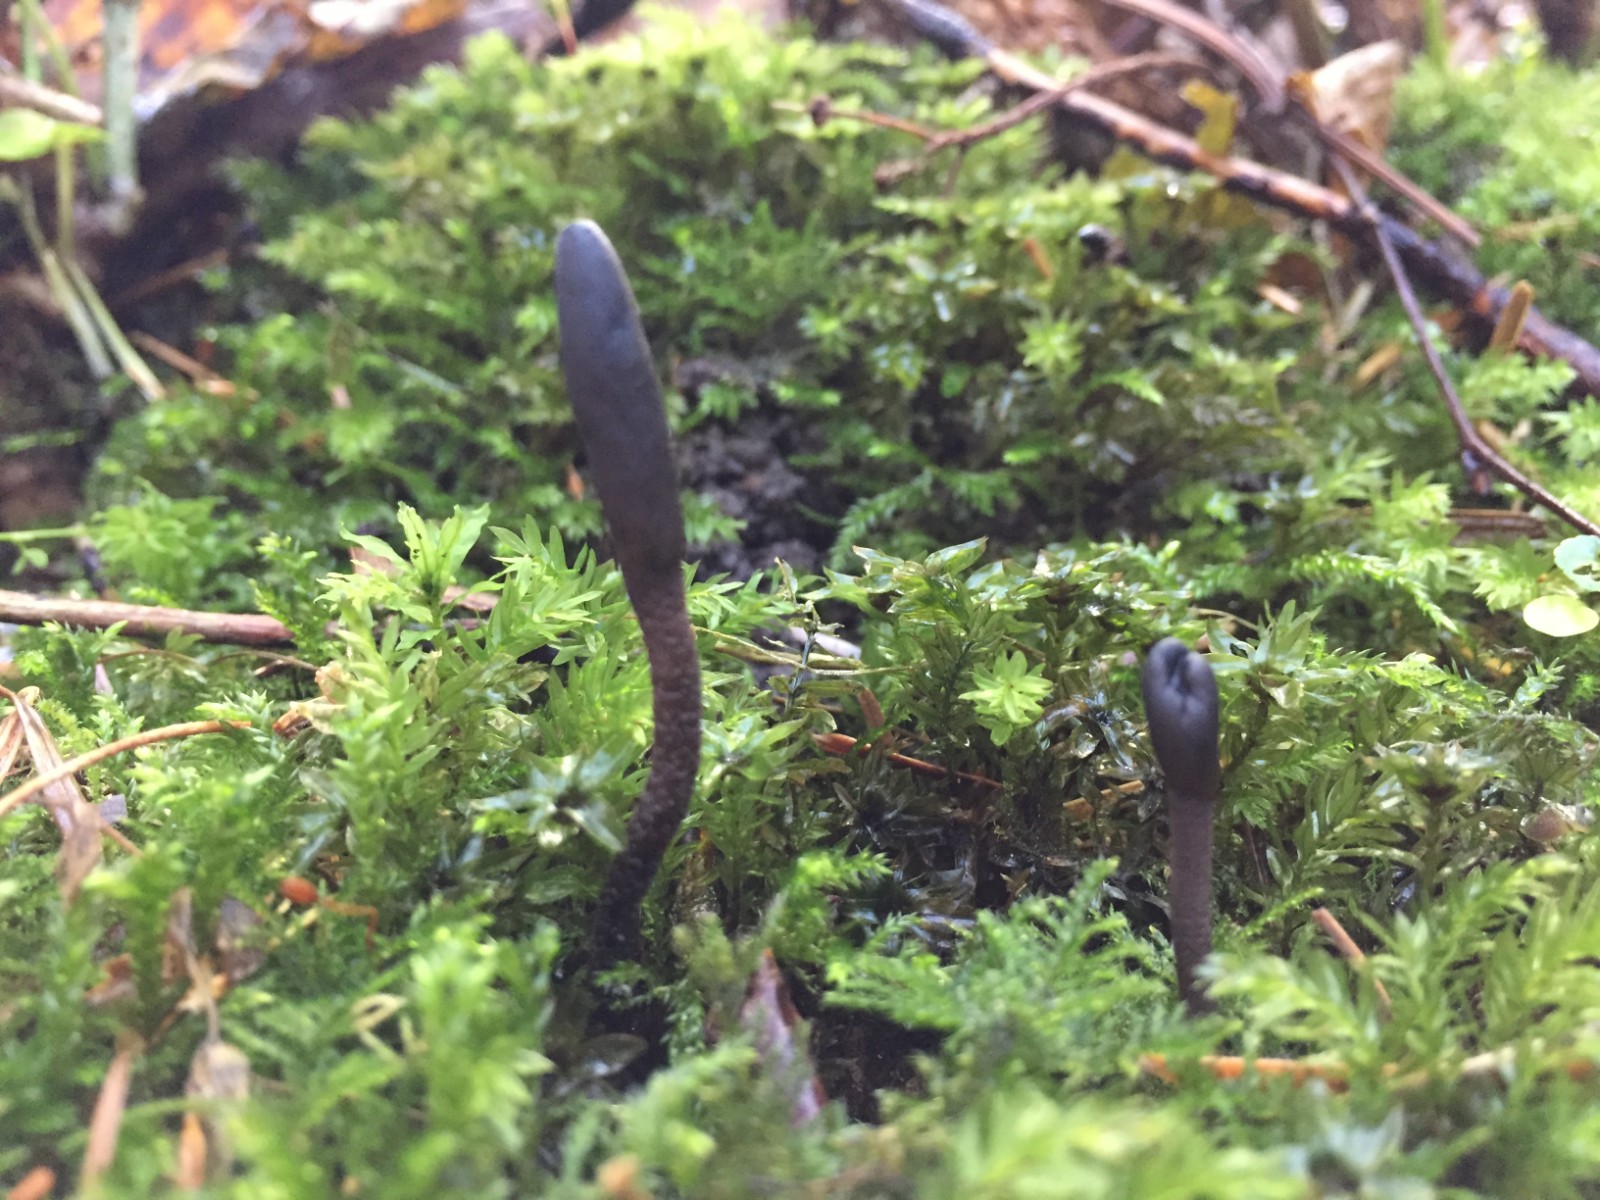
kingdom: Fungi
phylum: Ascomycota
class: Geoglossomycetes
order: Geoglossales
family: Geoglossaceae
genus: Geoglossum
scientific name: Geoglossum fallax
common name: småskællet jordtunge
